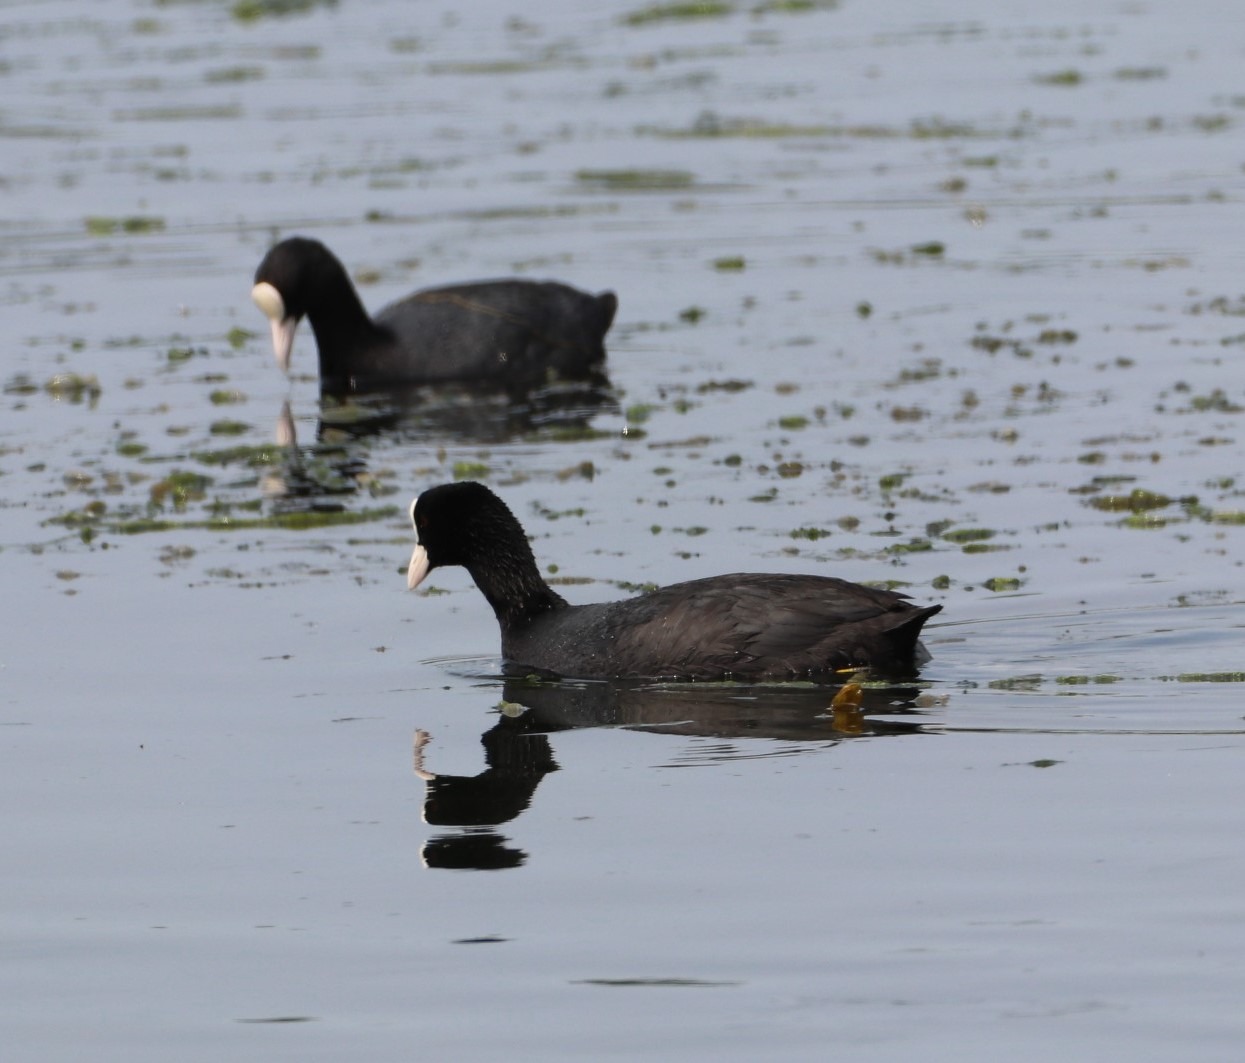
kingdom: Animalia
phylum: Chordata
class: Aves
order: Gruiformes
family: Rallidae
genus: Fulica
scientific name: Fulica atra
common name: Blishøne
